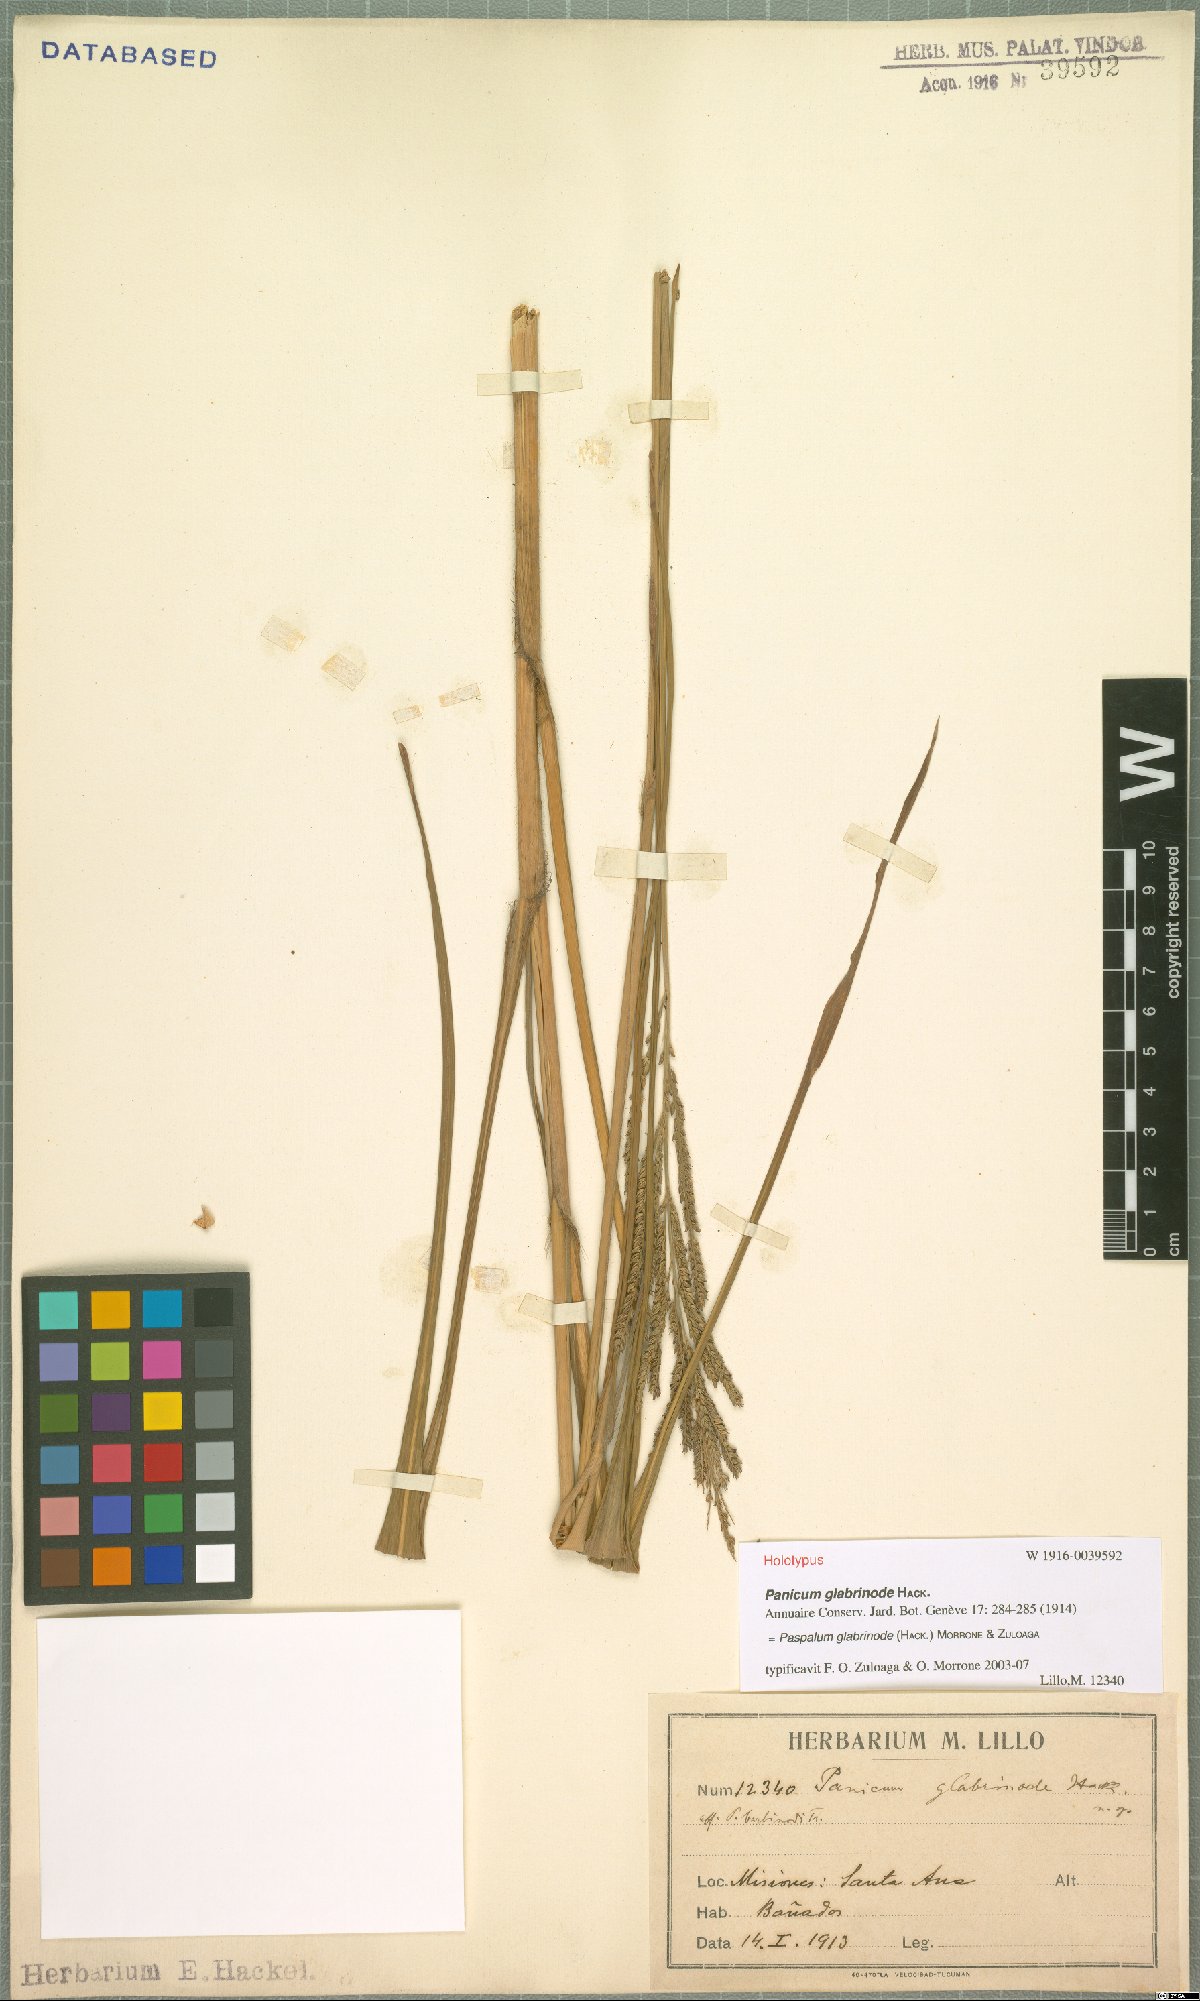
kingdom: Plantae
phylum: Tracheophyta
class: Liliopsida
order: Poales
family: Poaceae
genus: Paspalum
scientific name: Paspalum glabrinode
